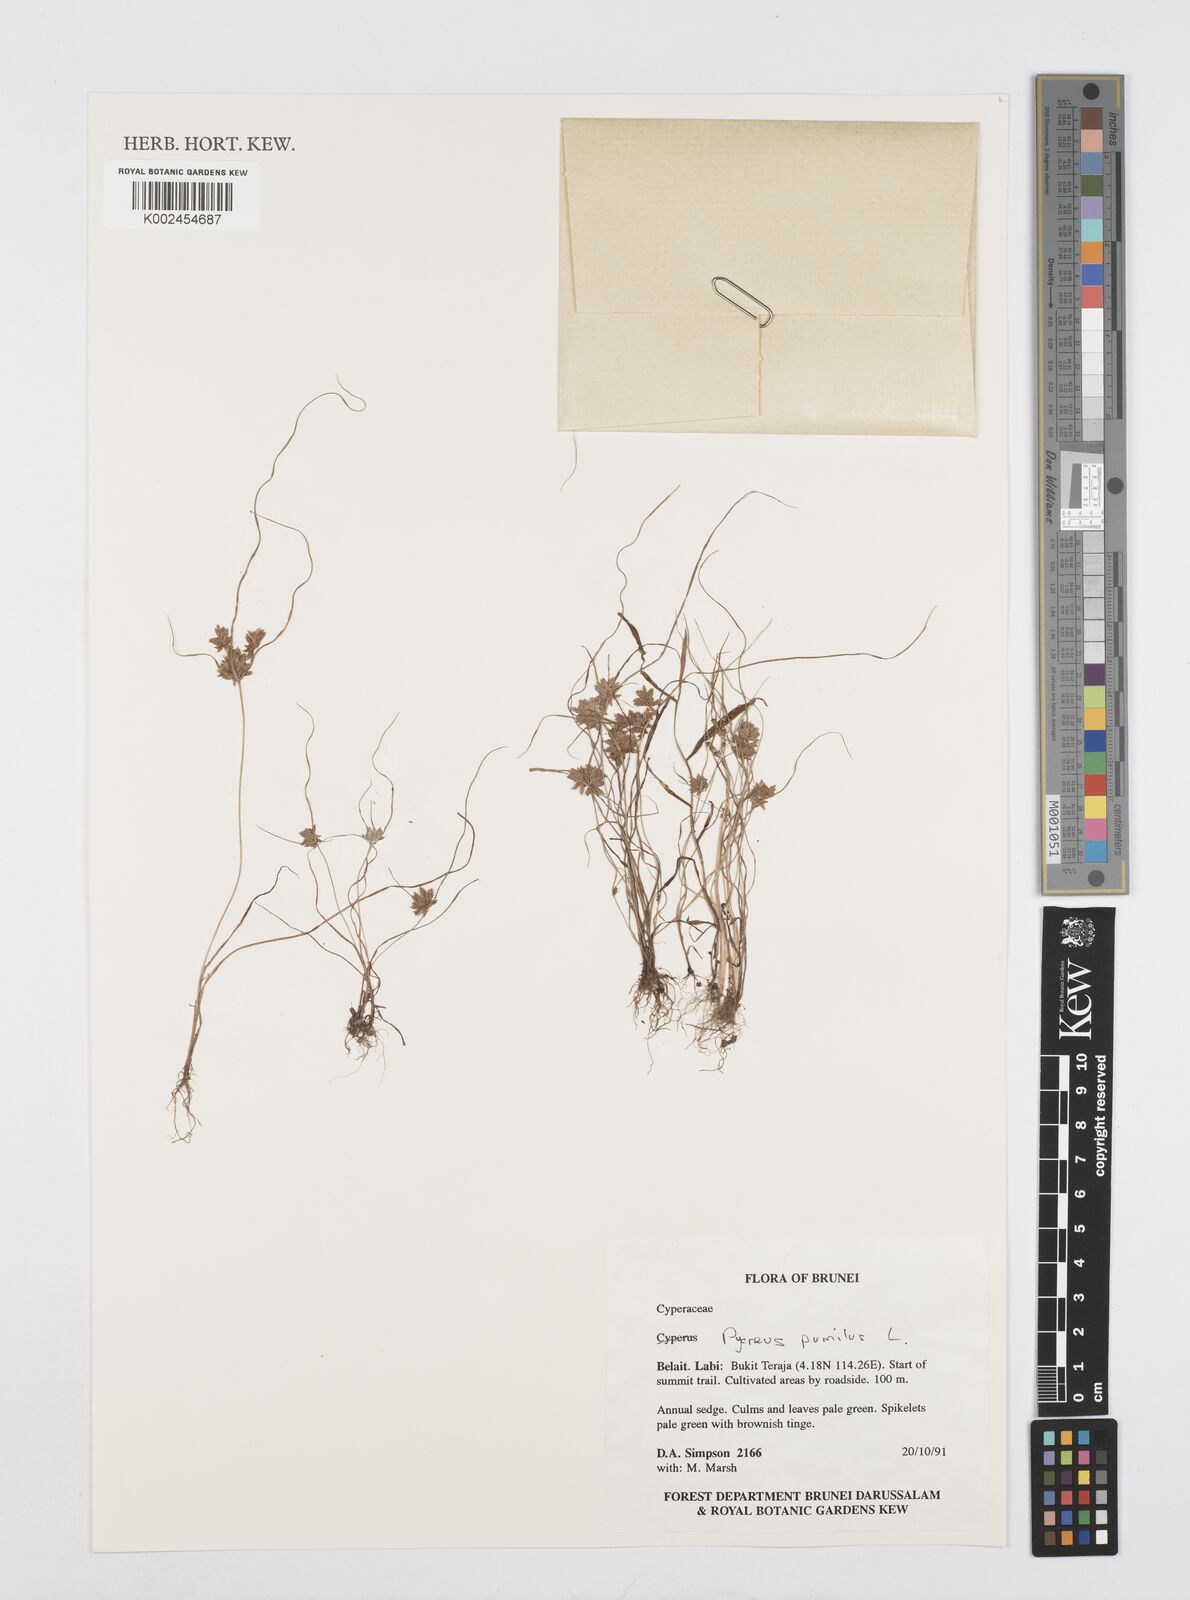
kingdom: Plantae
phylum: Tracheophyta
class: Liliopsida
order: Poales
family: Cyperaceae
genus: Cyperus
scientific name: Cyperus pumilus
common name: Low flatsedge
